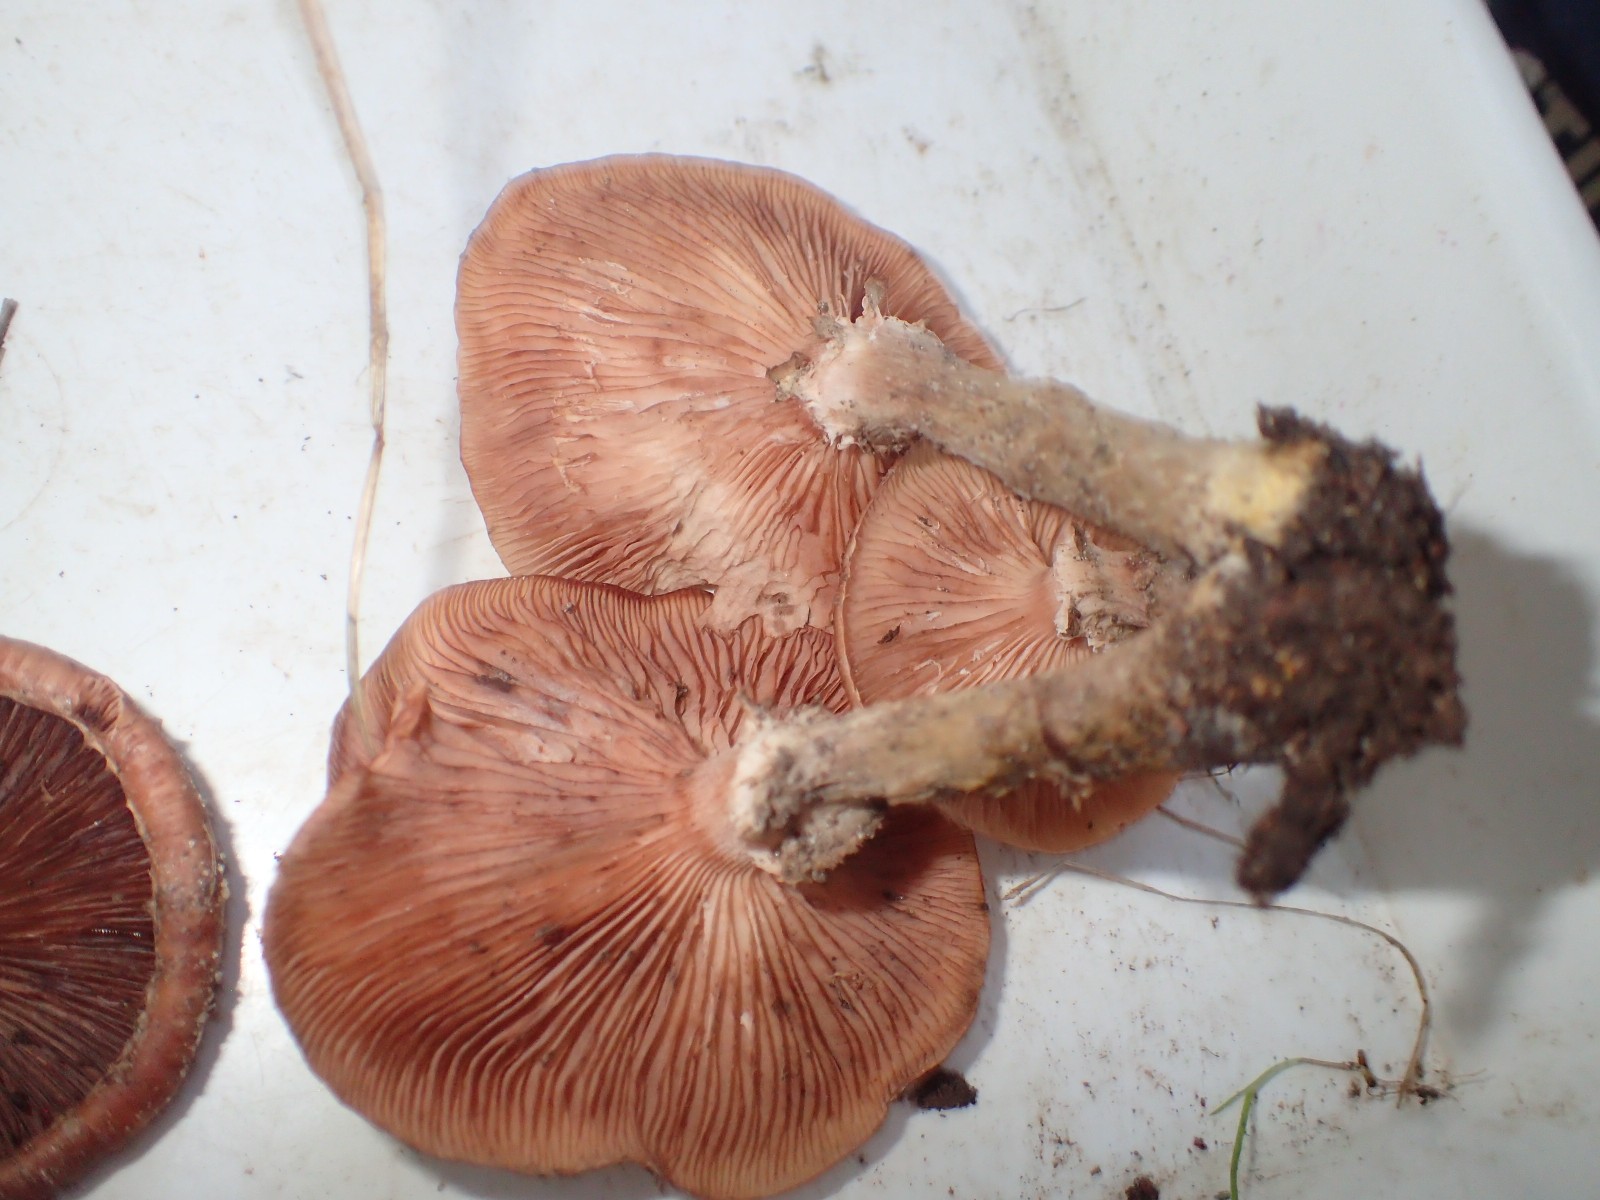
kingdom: Fungi
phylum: Basidiomycota
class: Agaricomycetes
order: Agaricales
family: Physalacriaceae
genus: Armillaria
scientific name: Armillaria lutea
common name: køllestokket honningsvamp
